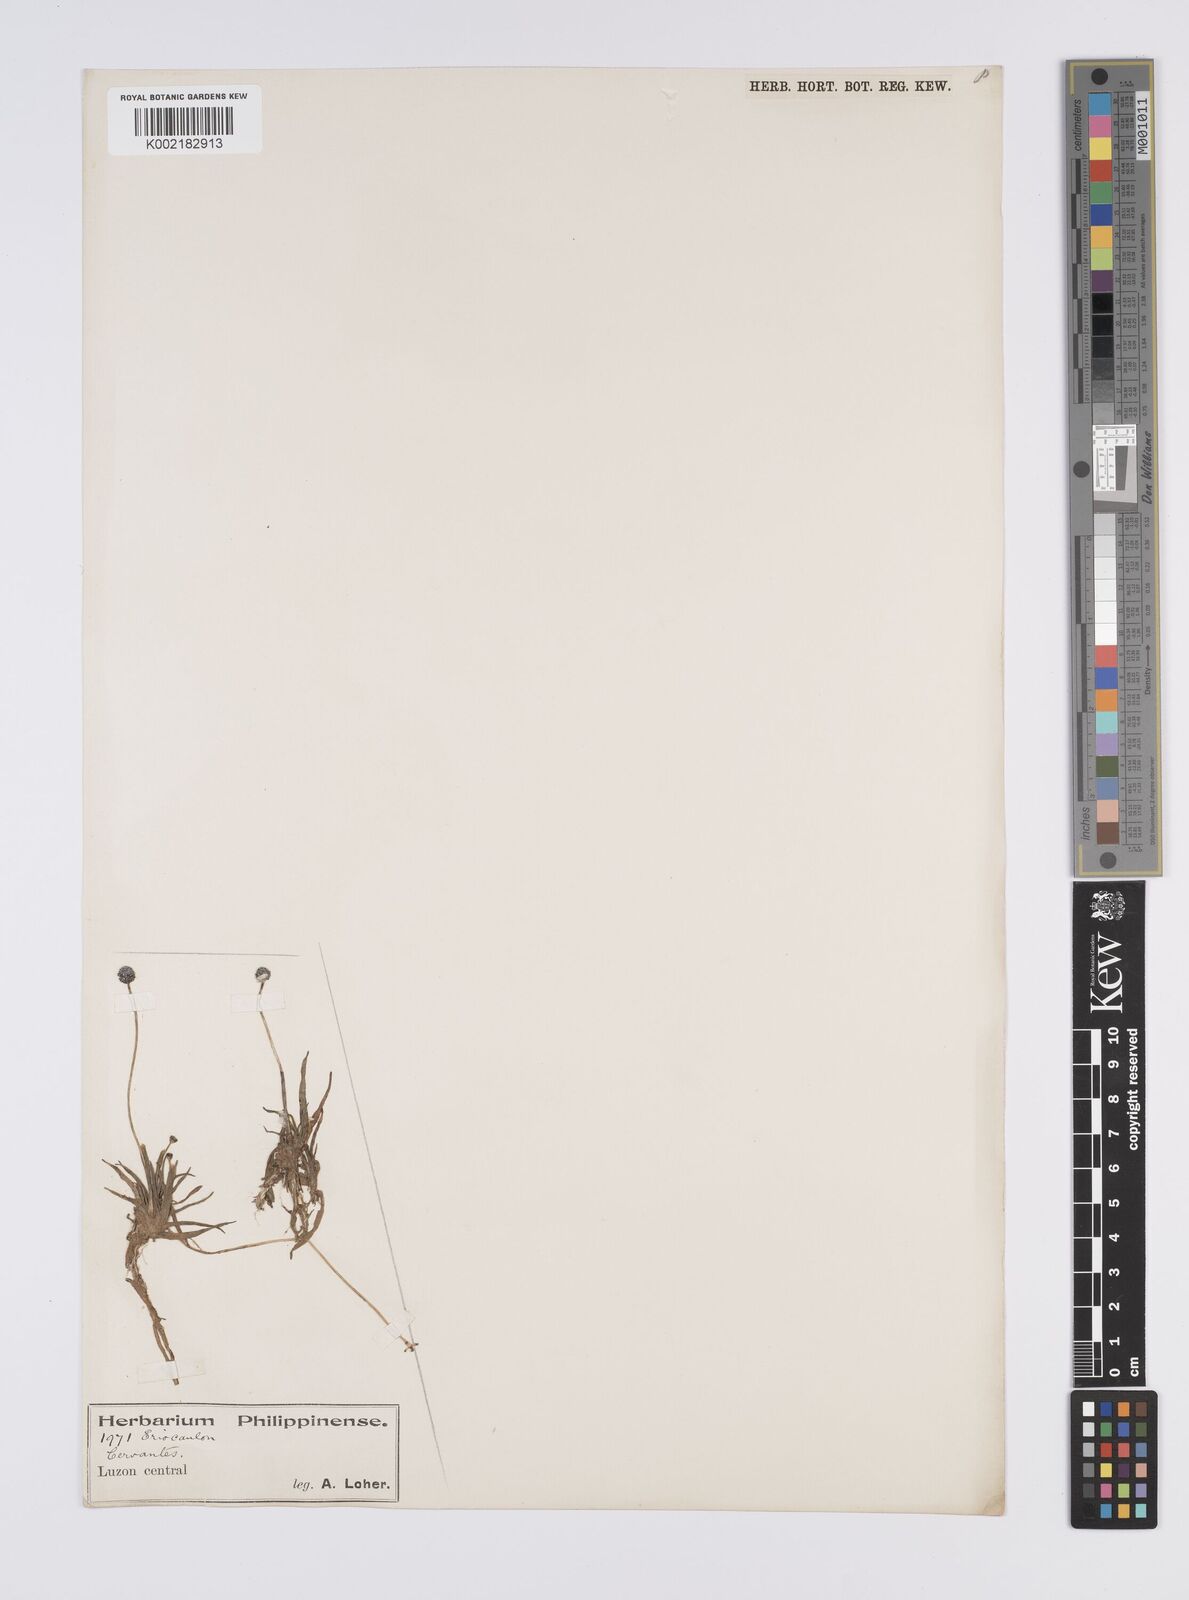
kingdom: Plantae
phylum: Tracheophyta
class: Liliopsida
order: Poales
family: Eriocaulaceae
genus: Eriocaulon
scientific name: Eriocaulon cinereum
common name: Ashy pipewort
